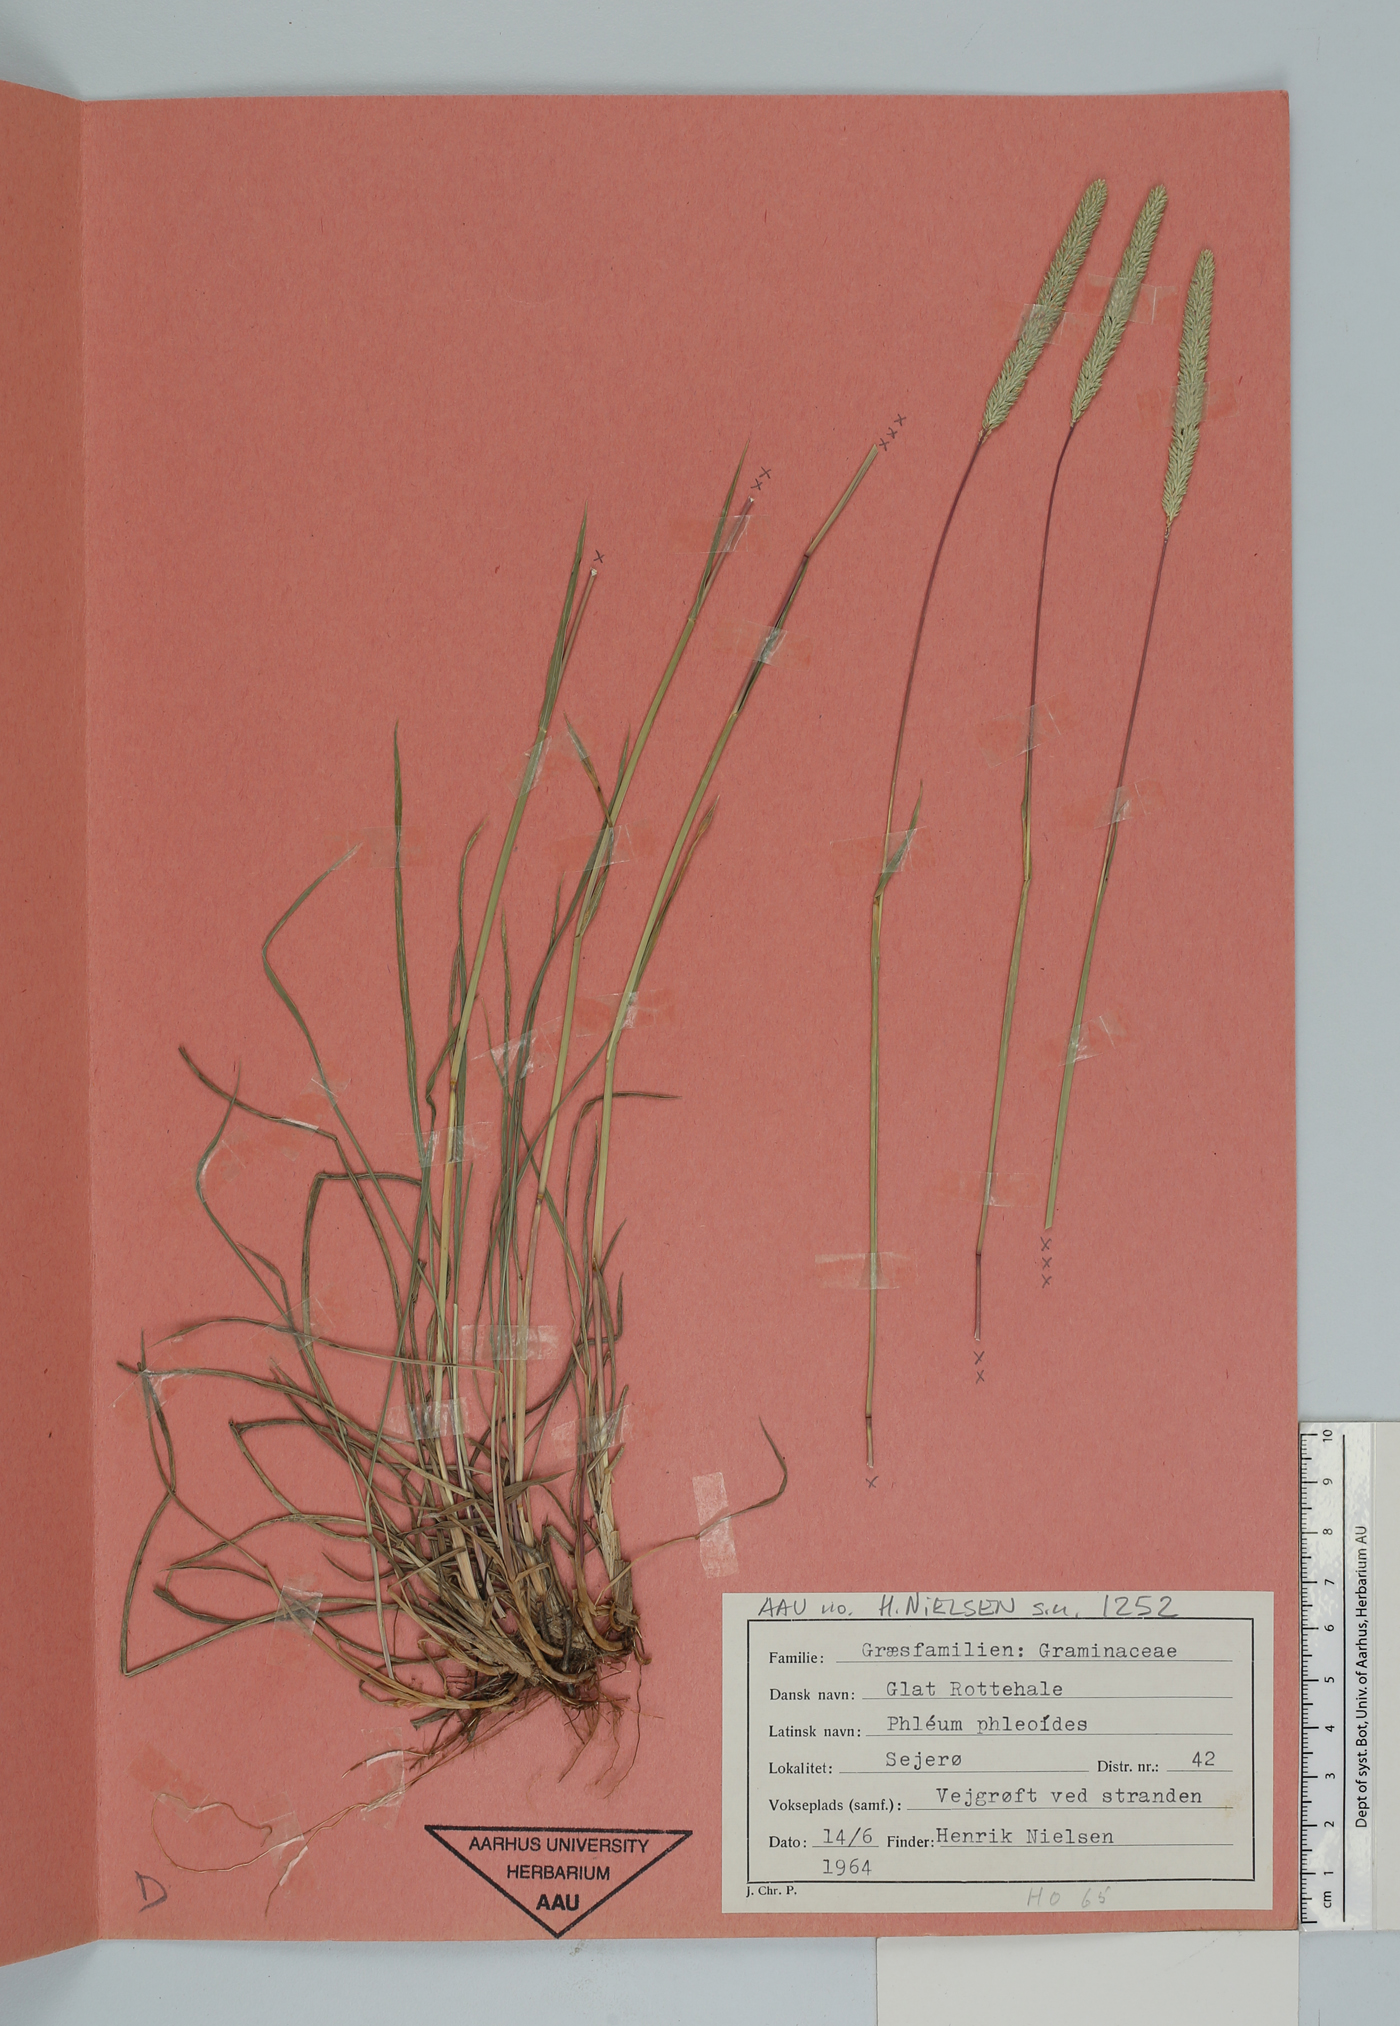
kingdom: Plantae
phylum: Tracheophyta
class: Liliopsida
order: Poales
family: Poaceae
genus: Phleum
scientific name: Phleum phleoides
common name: Purple-stem cat's-tail
